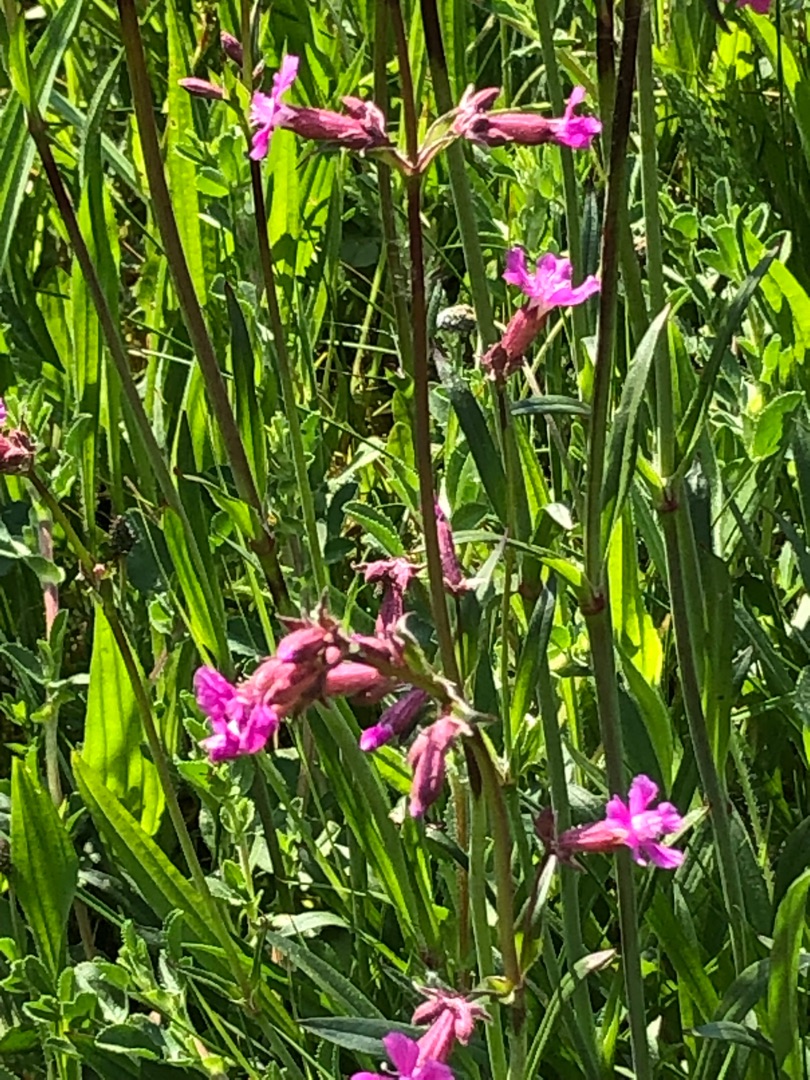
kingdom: Plantae
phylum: Tracheophyta
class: Magnoliopsida
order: Caryophyllales
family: Caryophyllaceae
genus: Viscaria
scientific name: Viscaria vulgaris
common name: Tjærenellike
